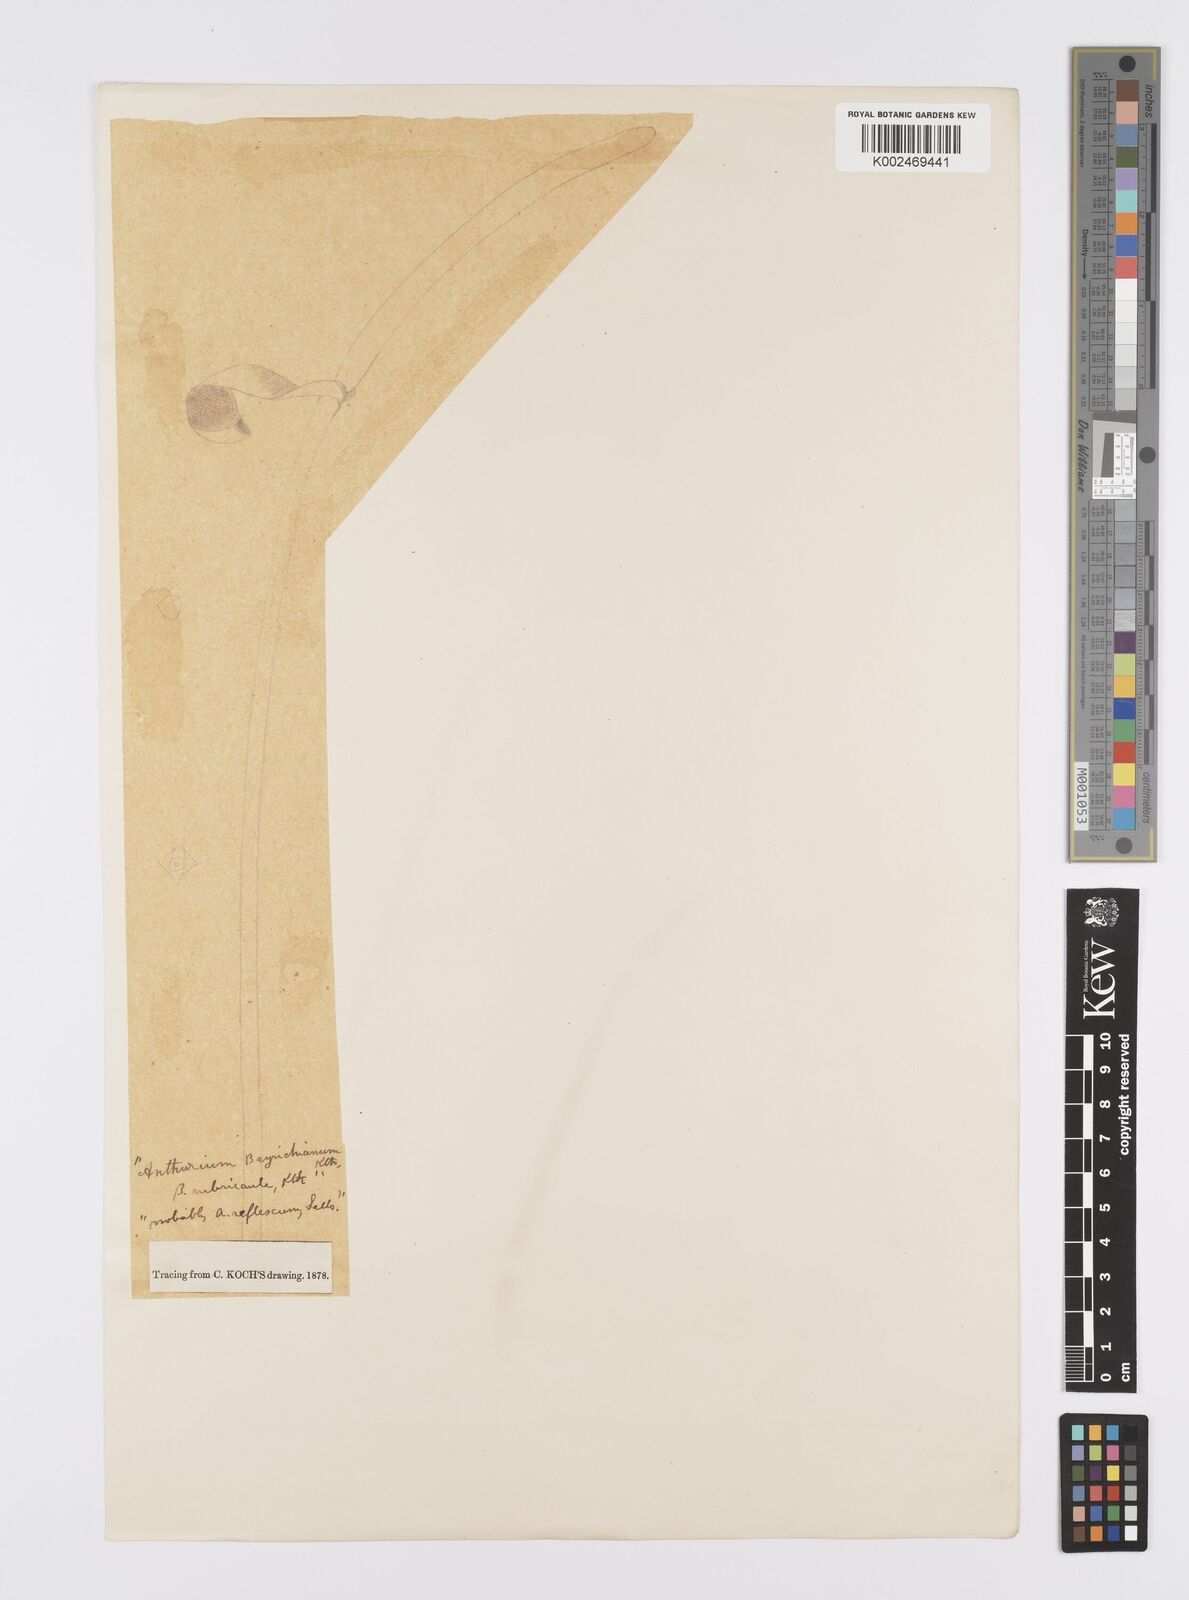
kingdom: Plantae
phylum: Tracheophyta
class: Liliopsida
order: Alismatales
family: Araceae
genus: Anthurium
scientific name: Anthurium intermedium
